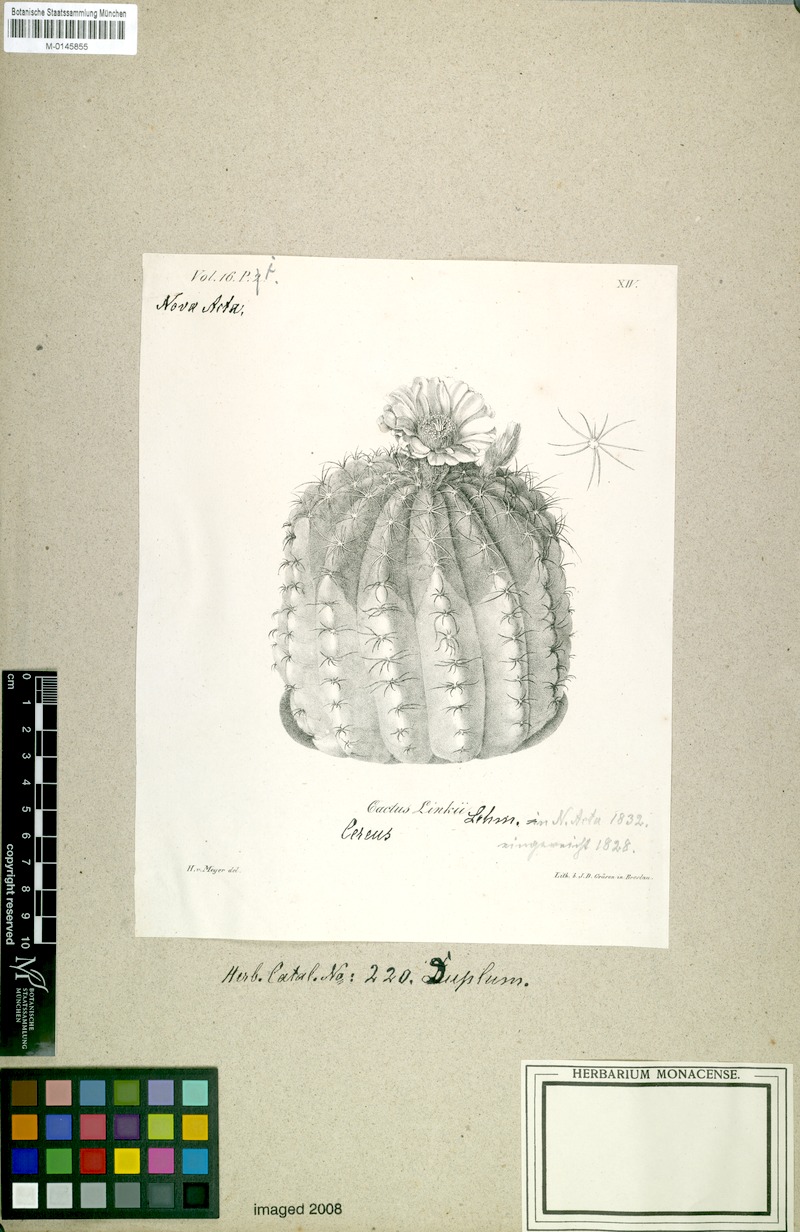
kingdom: Plantae
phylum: Tracheophyta
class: Magnoliopsida
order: Caryophyllales
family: Cactaceae
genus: Parodia
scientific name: Parodia ottonis
